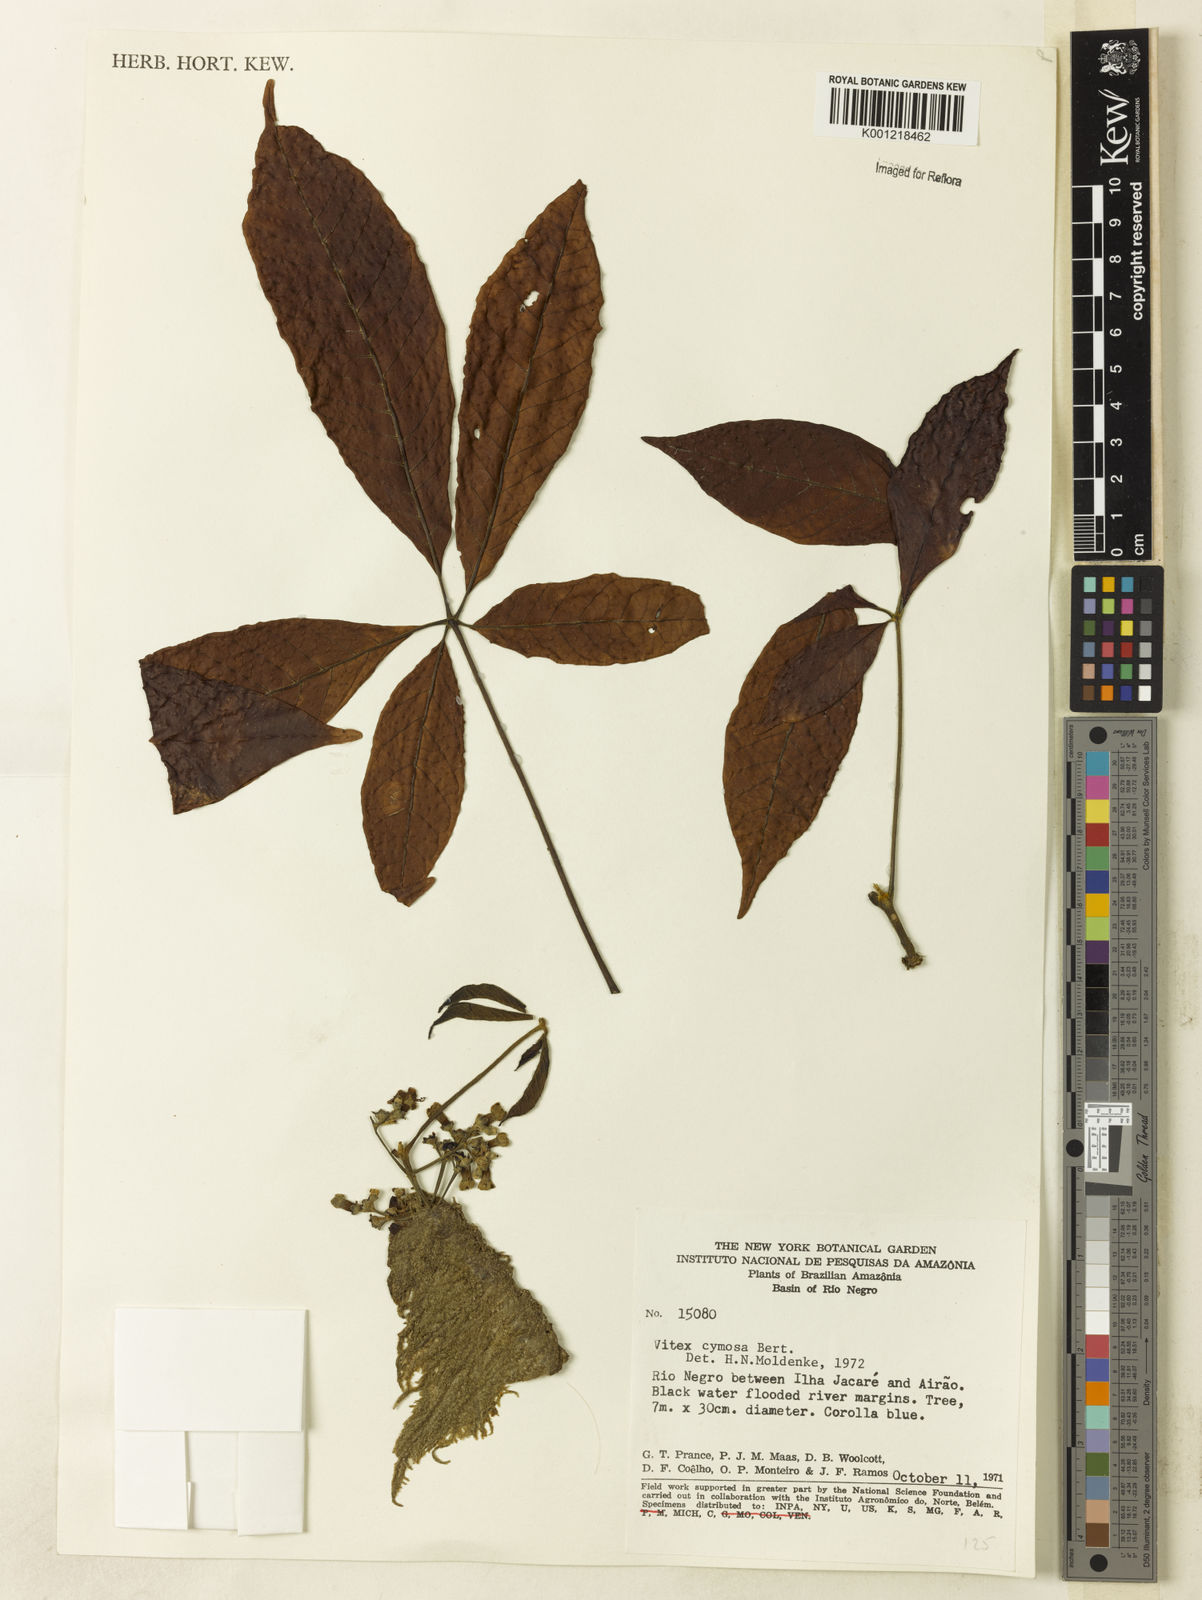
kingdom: Plantae
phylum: Tracheophyta
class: Magnoliopsida
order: Lamiales
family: Lamiaceae
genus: Vitex
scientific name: Vitex cymosa
